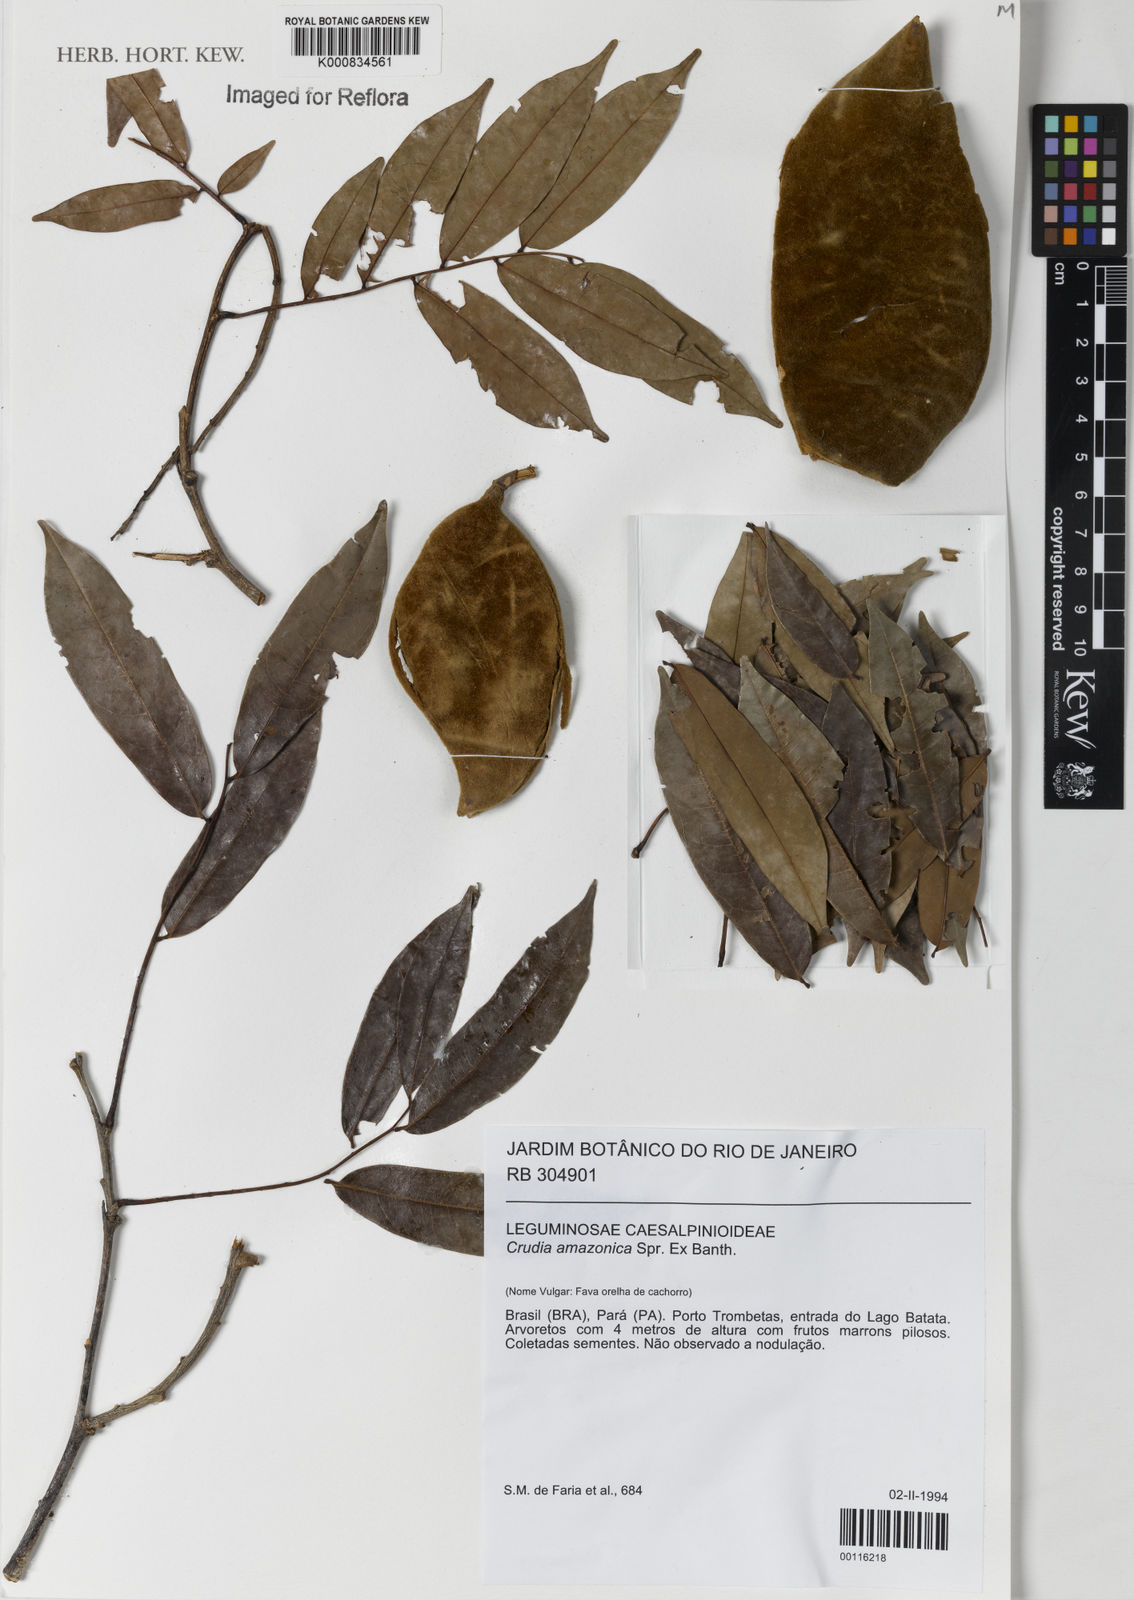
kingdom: Plantae
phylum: Tracheophyta
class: Magnoliopsida
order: Fabales
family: Fabaceae
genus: Crudia
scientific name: Crudia
